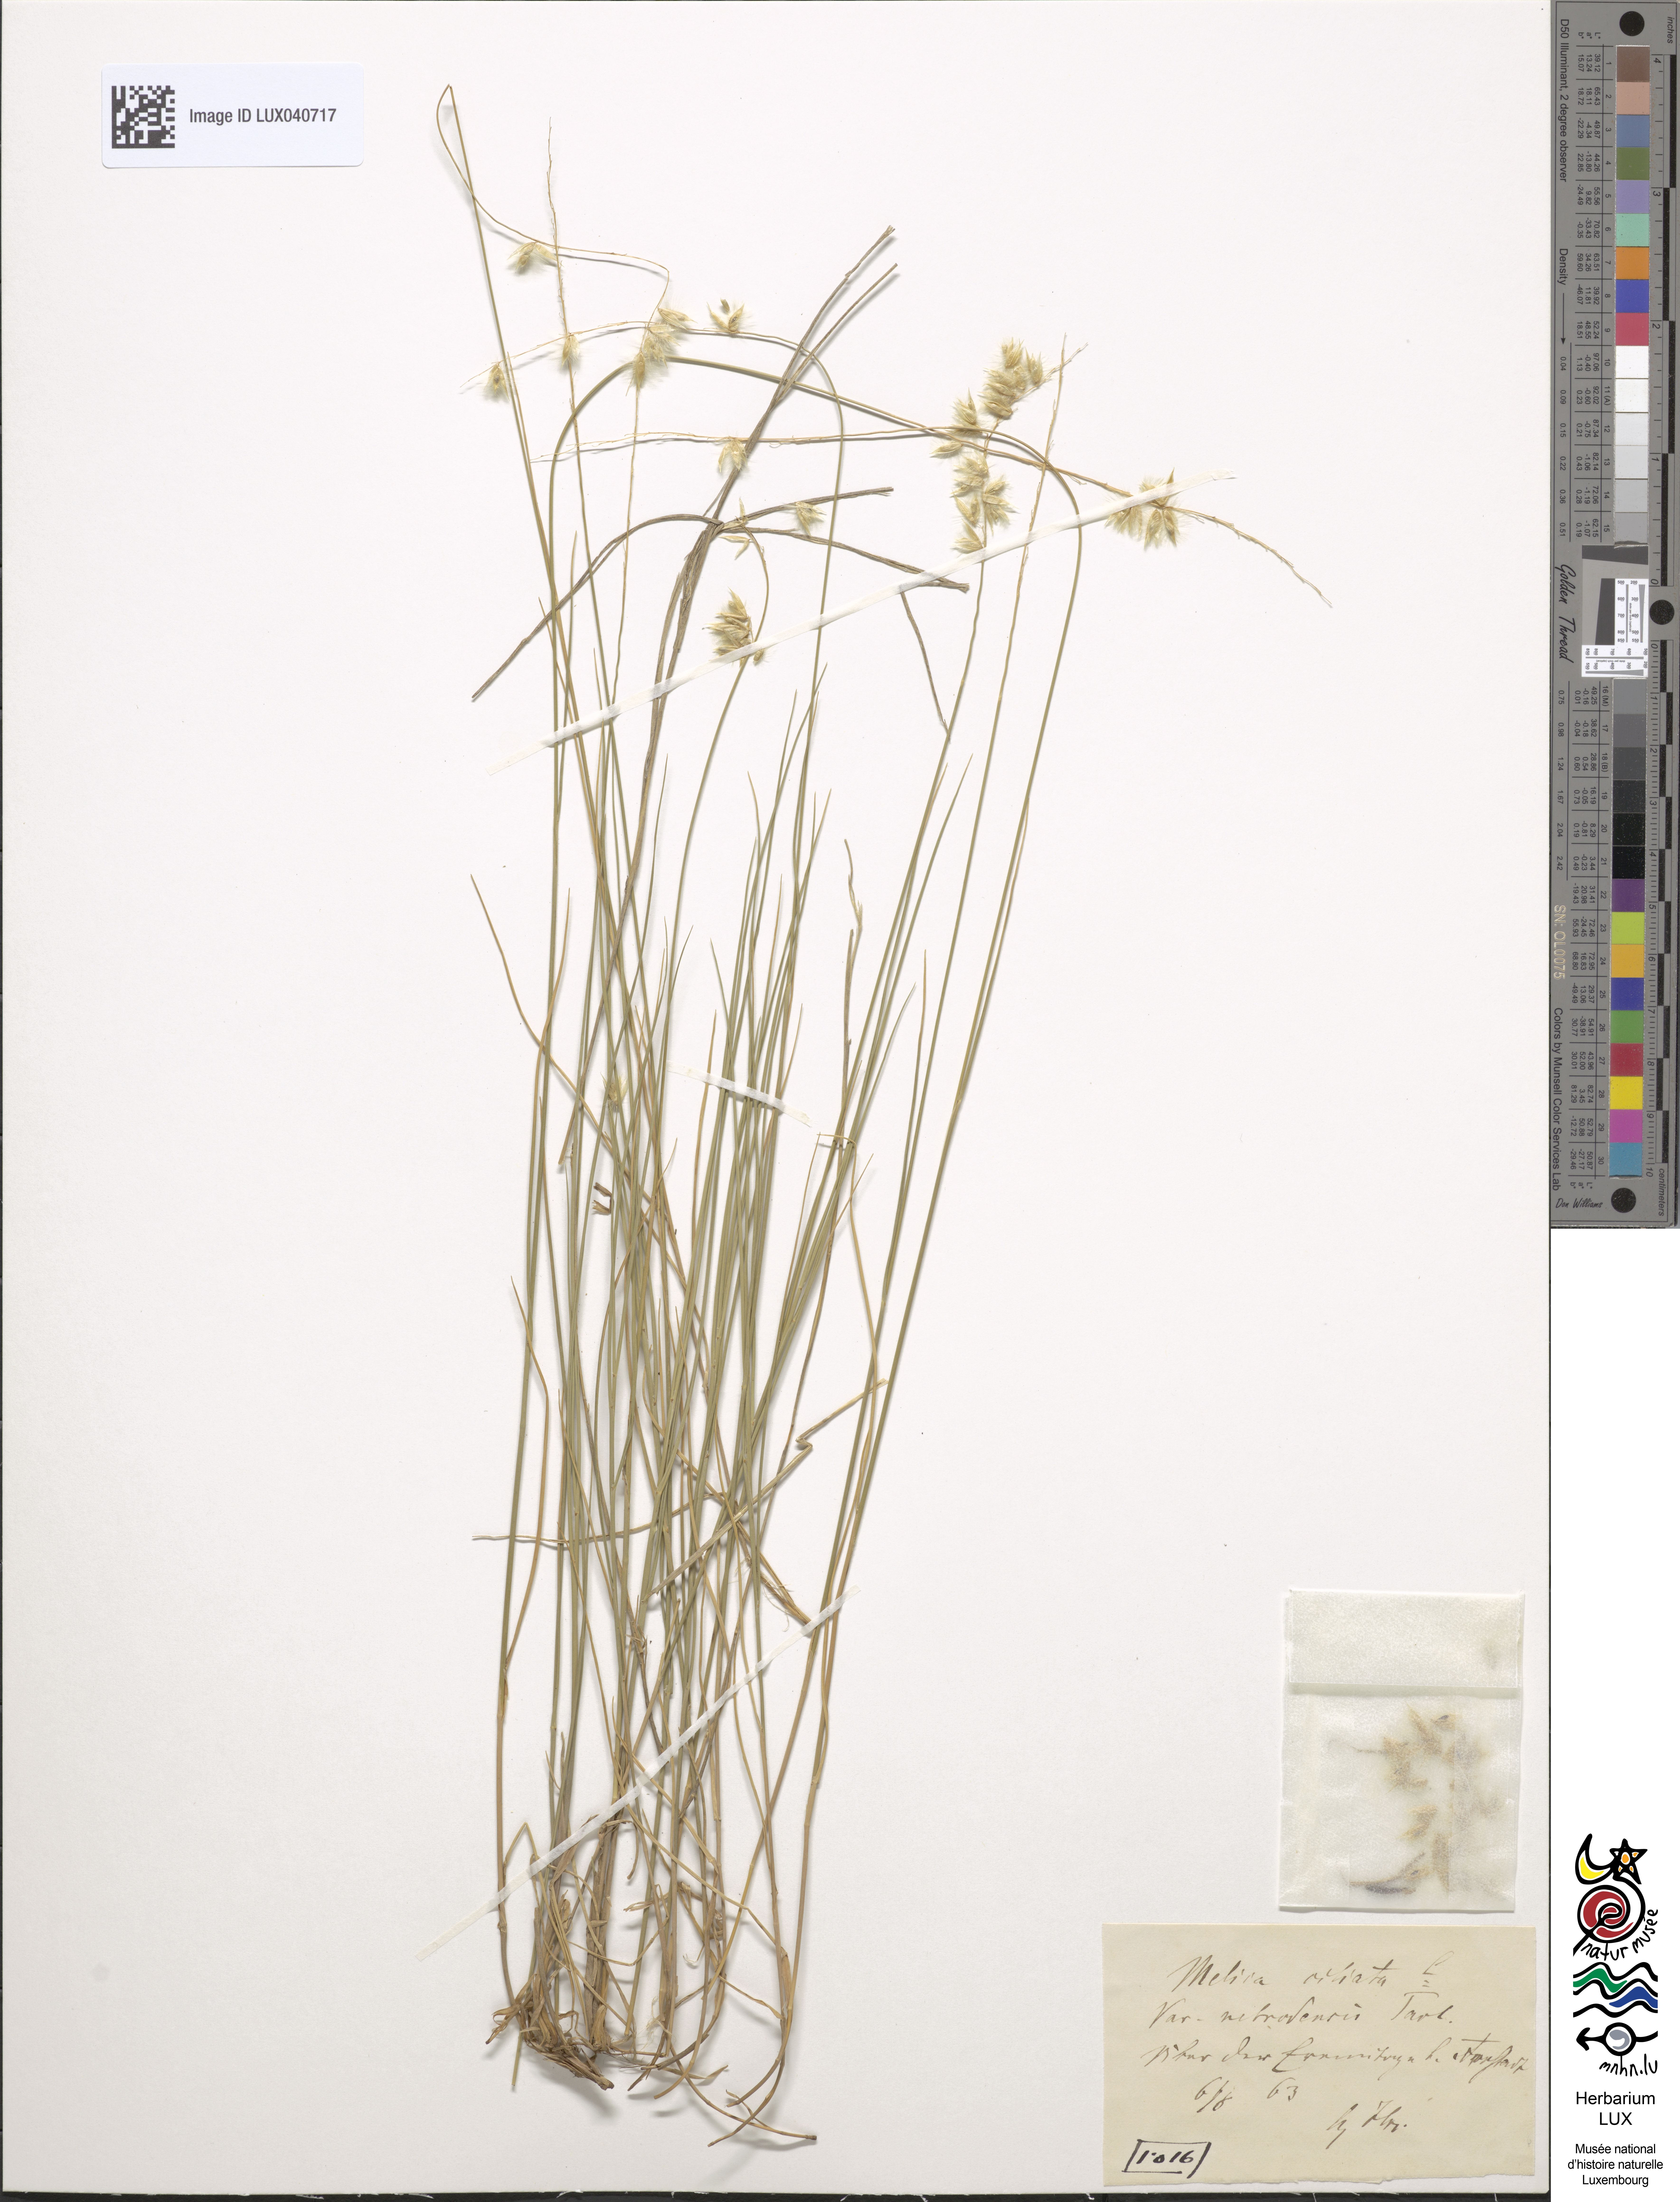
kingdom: Plantae
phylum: Tracheophyta
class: Liliopsida
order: Poales
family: Poaceae
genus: Melica
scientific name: Melica ciliata
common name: Hairy melicgrass
